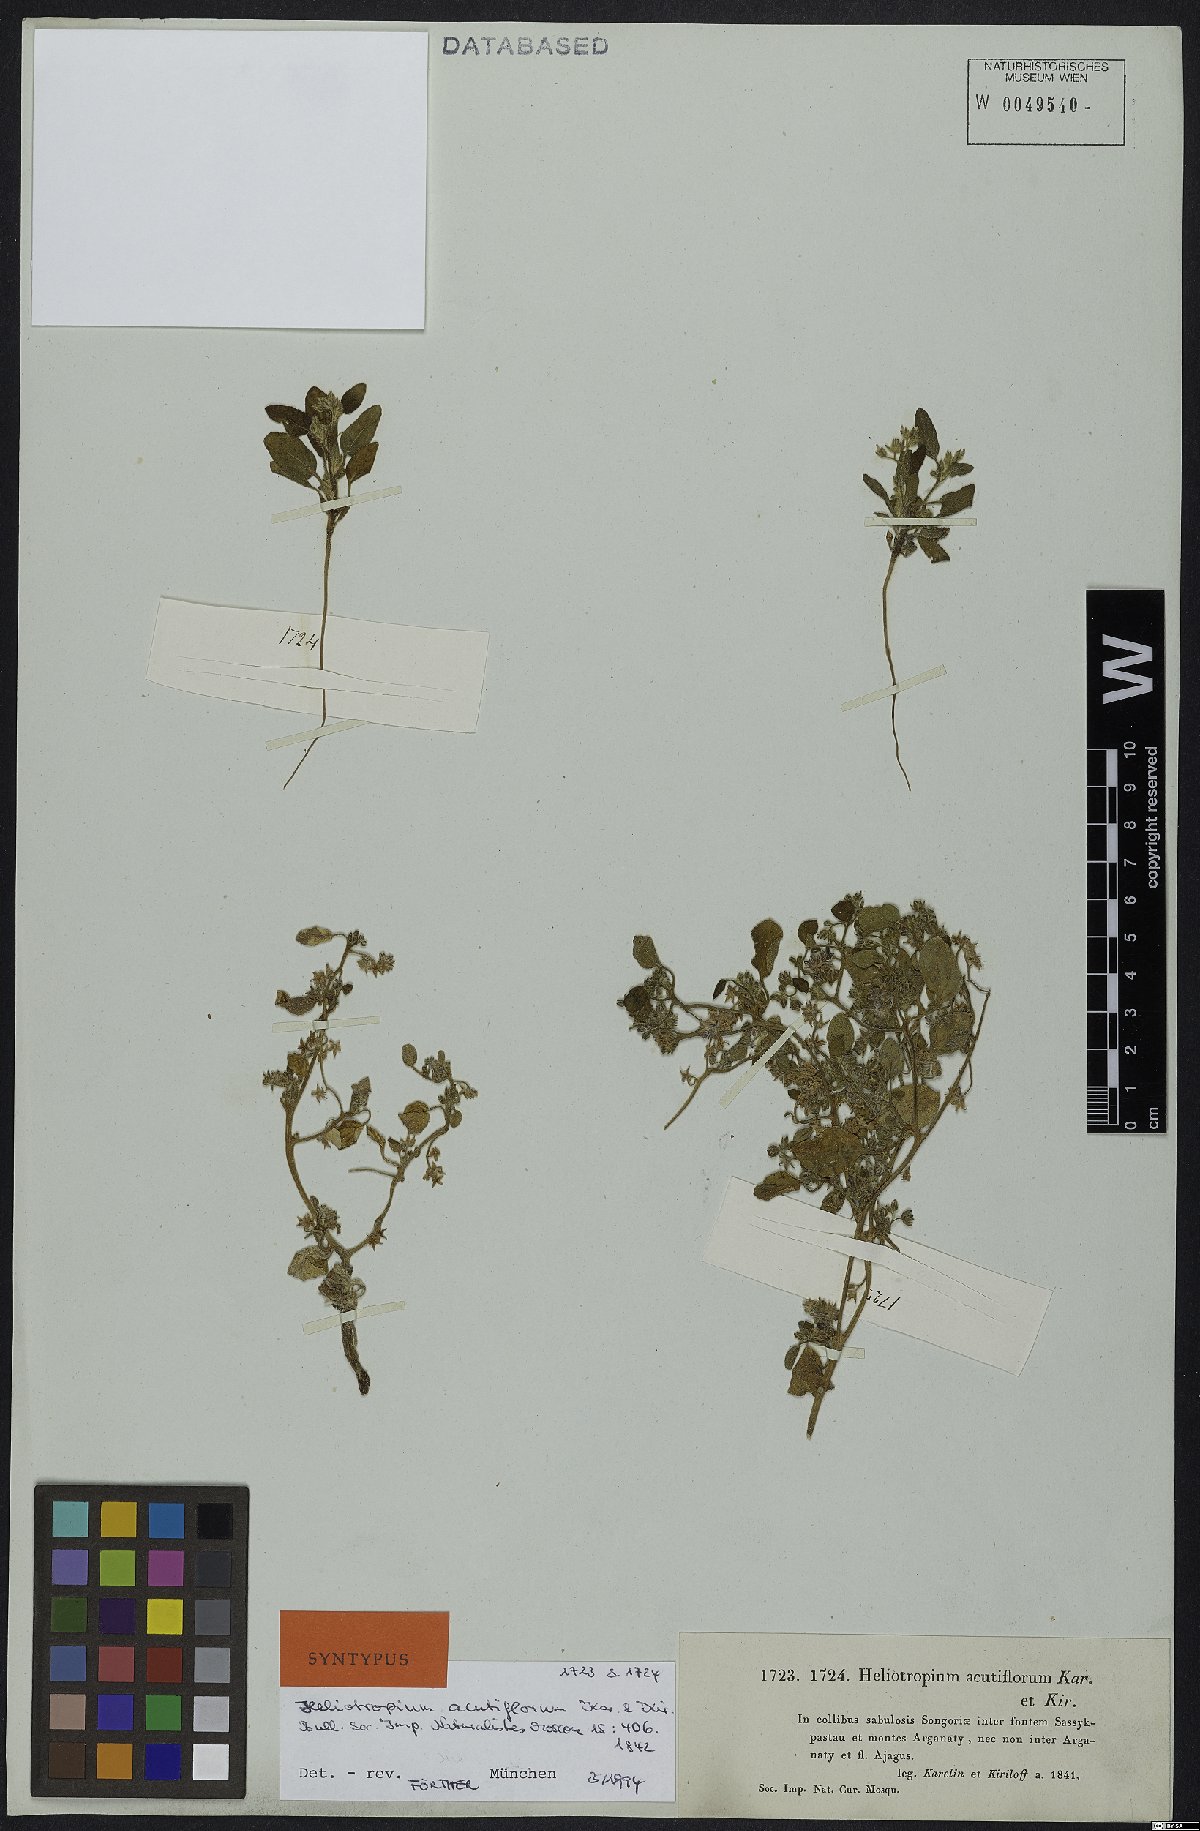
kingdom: Plantae
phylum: Tracheophyta
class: Magnoliopsida
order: Boraginales
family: Heliotropiaceae
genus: Heliotropium
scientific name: Heliotropium acutiflorum
